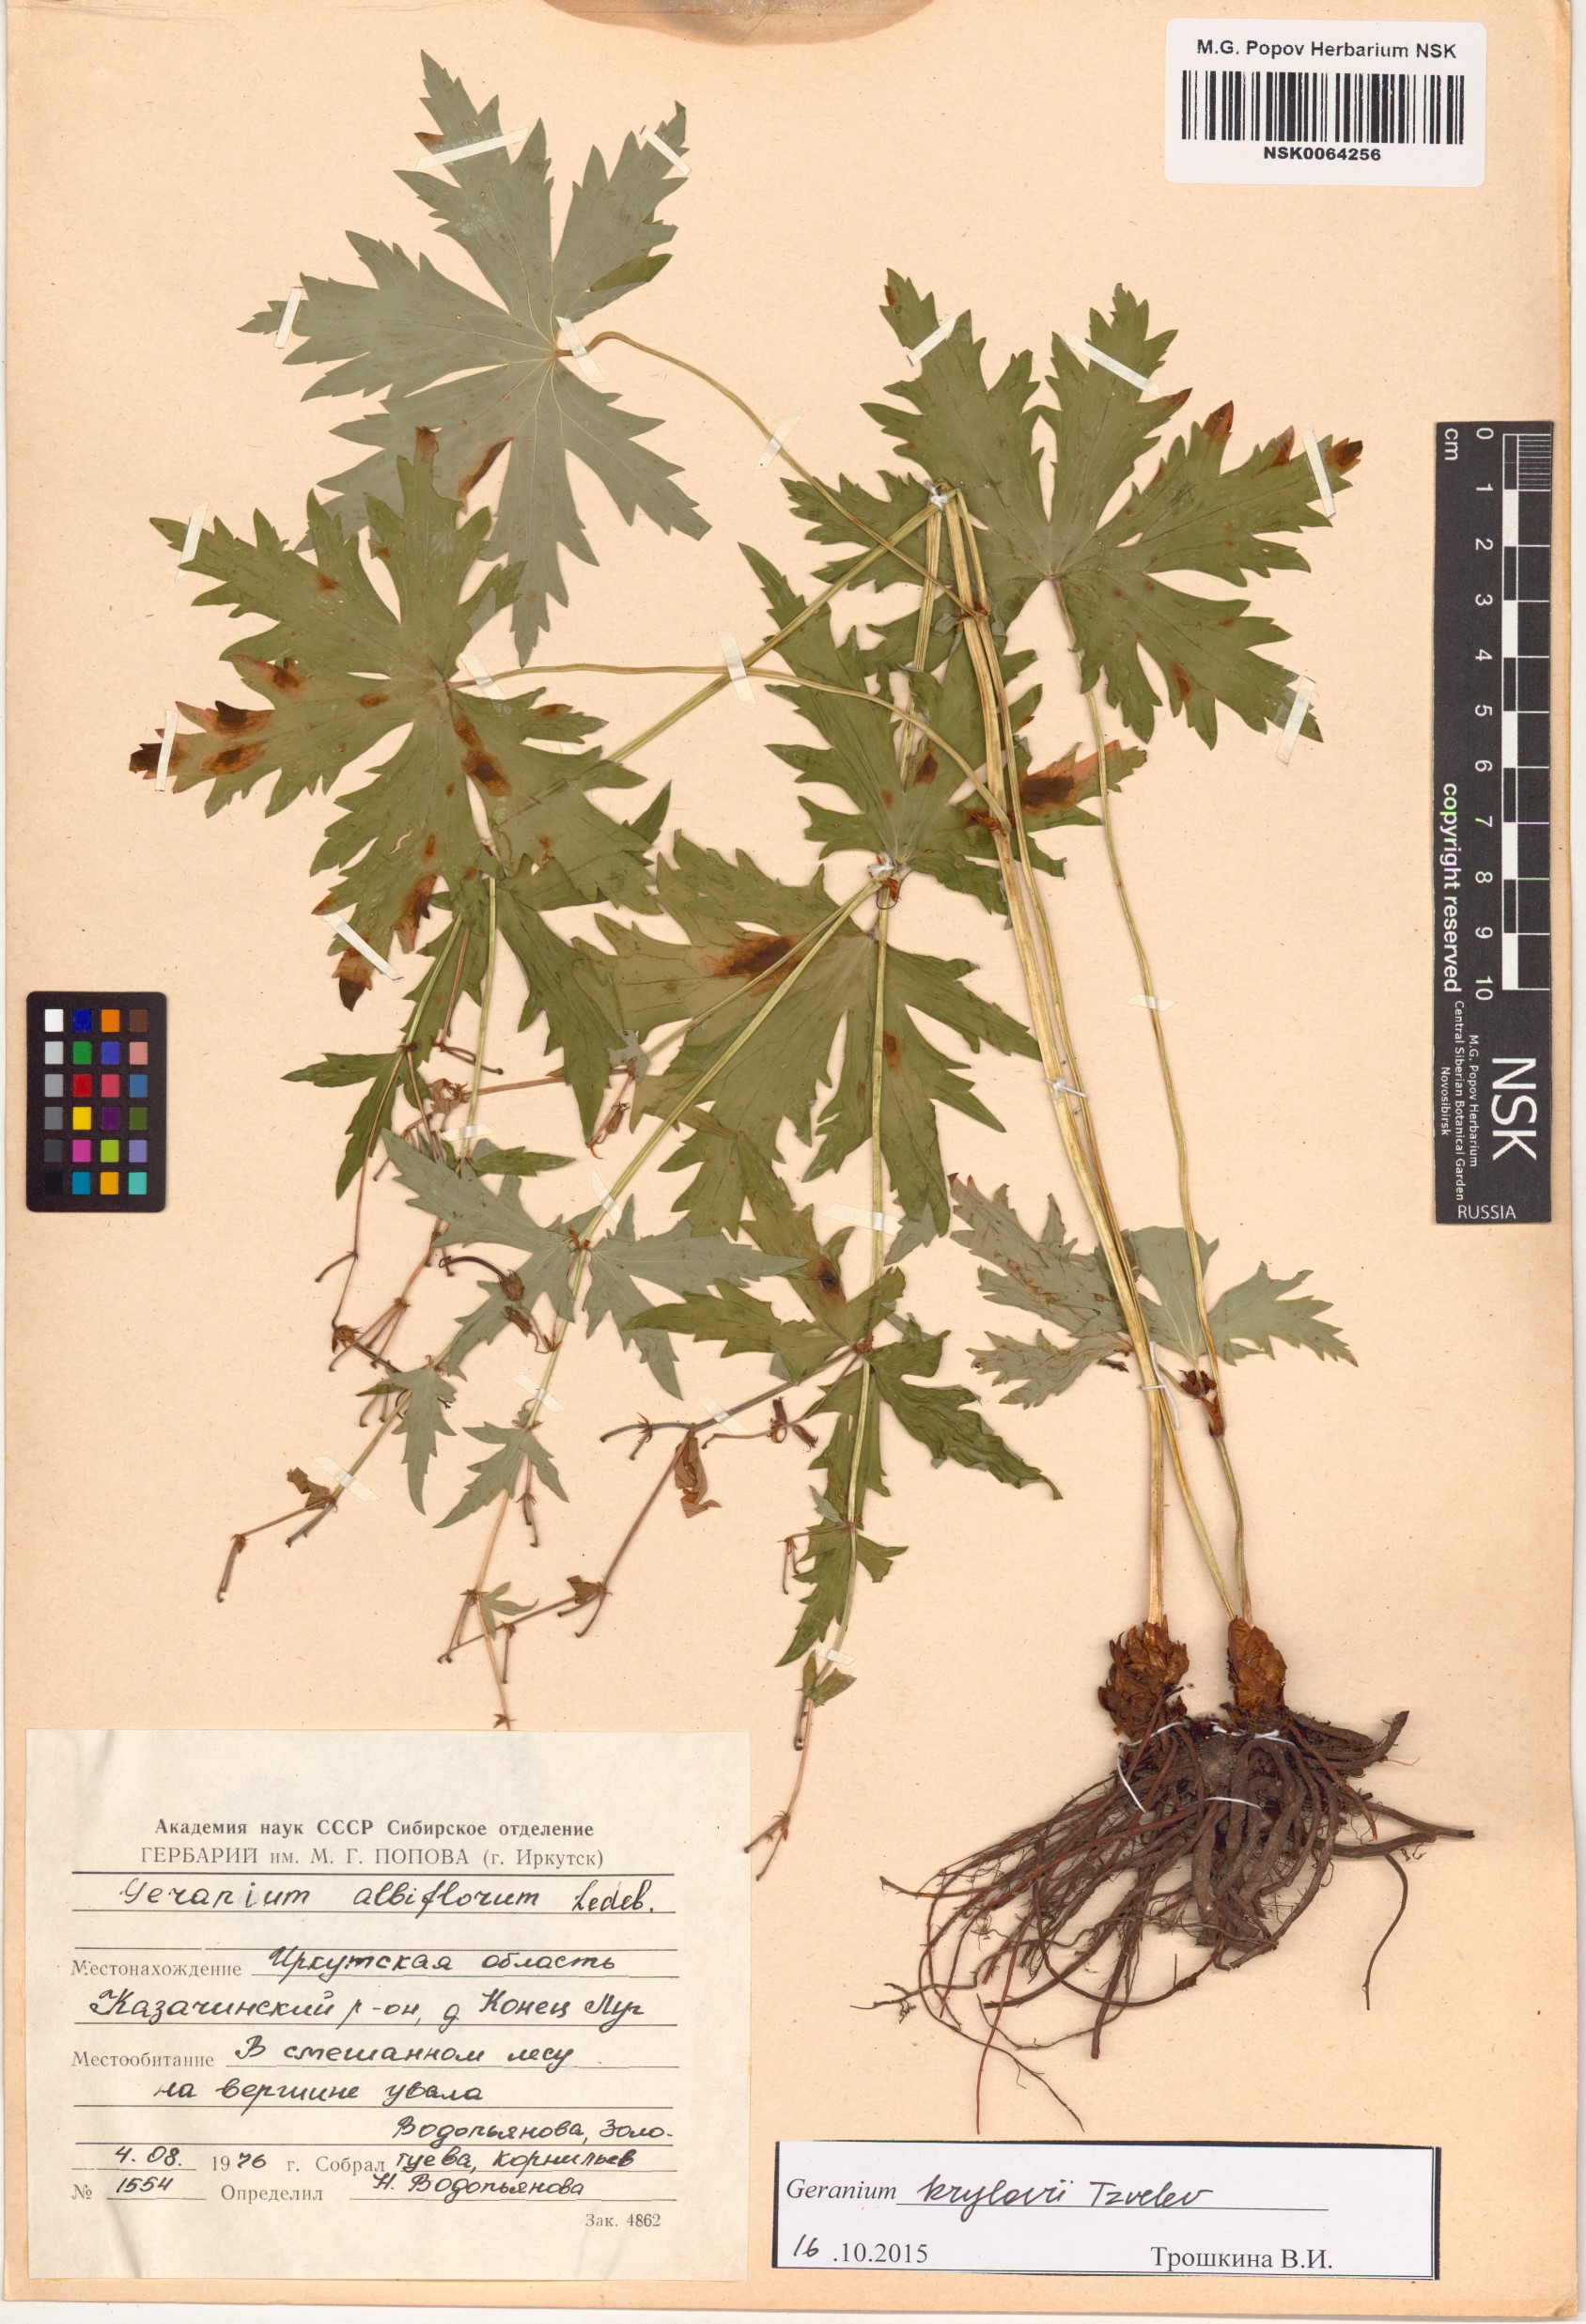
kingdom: Plantae
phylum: Tracheophyta
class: Magnoliopsida
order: Geraniales
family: Geraniaceae
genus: Geranium
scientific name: Geranium sylvaticum
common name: Wood crane's-bill
